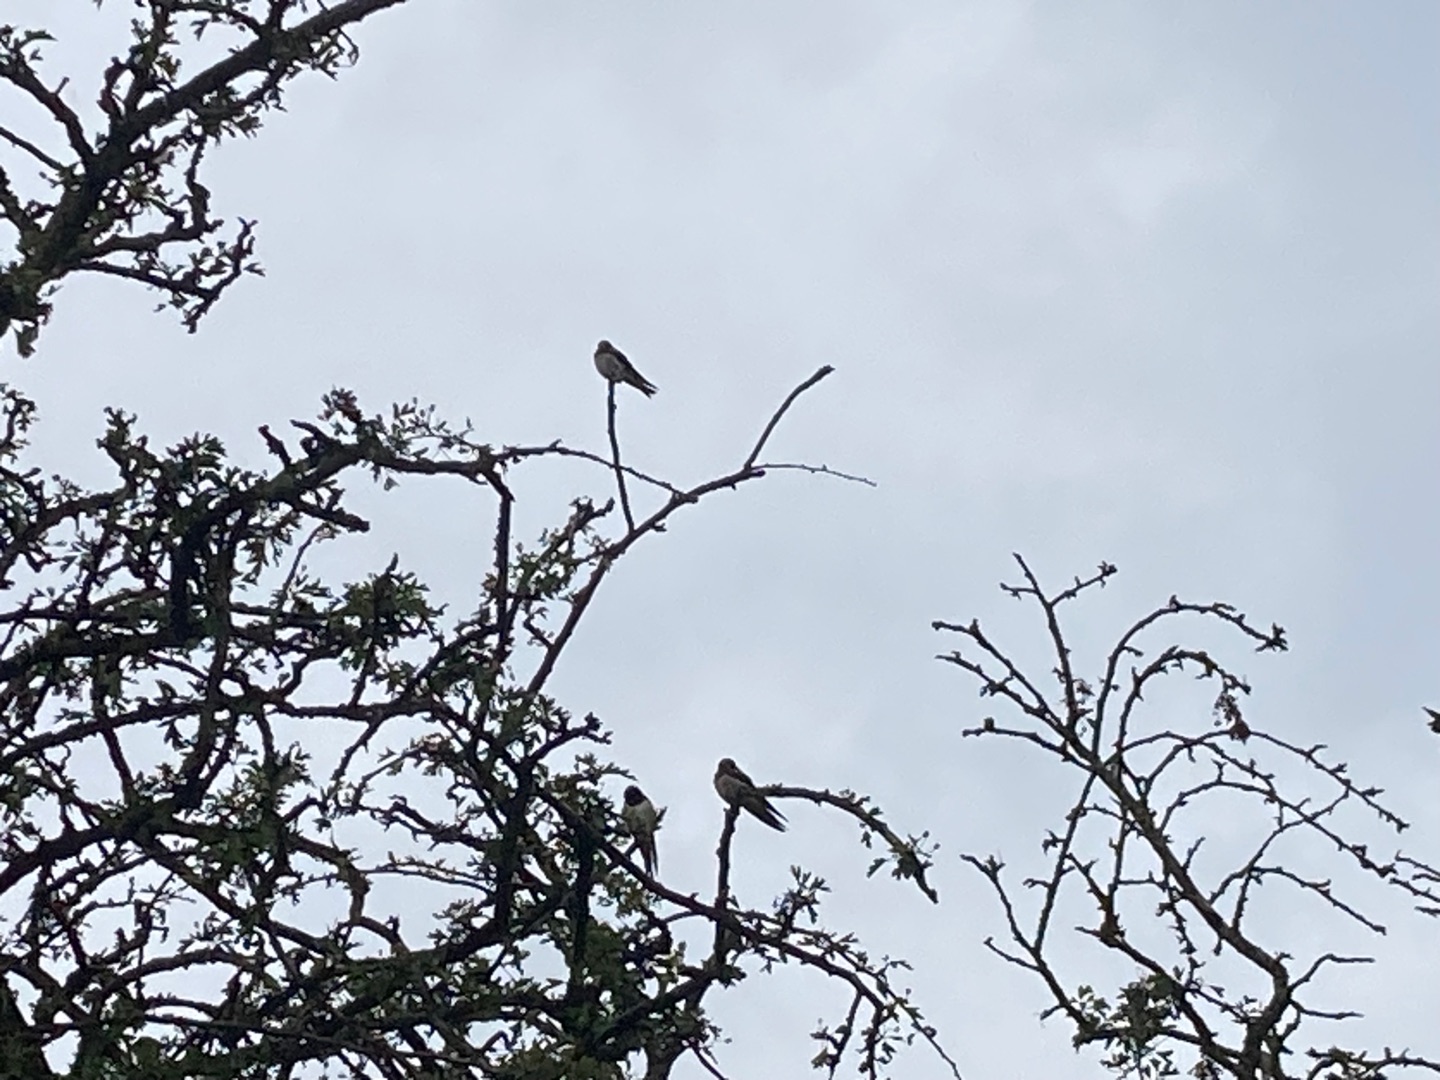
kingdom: Animalia
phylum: Chordata
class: Aves
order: Passeriformes
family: Hirundinidae
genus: Hirundo
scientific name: Hirundo rustica
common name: Landsvale
